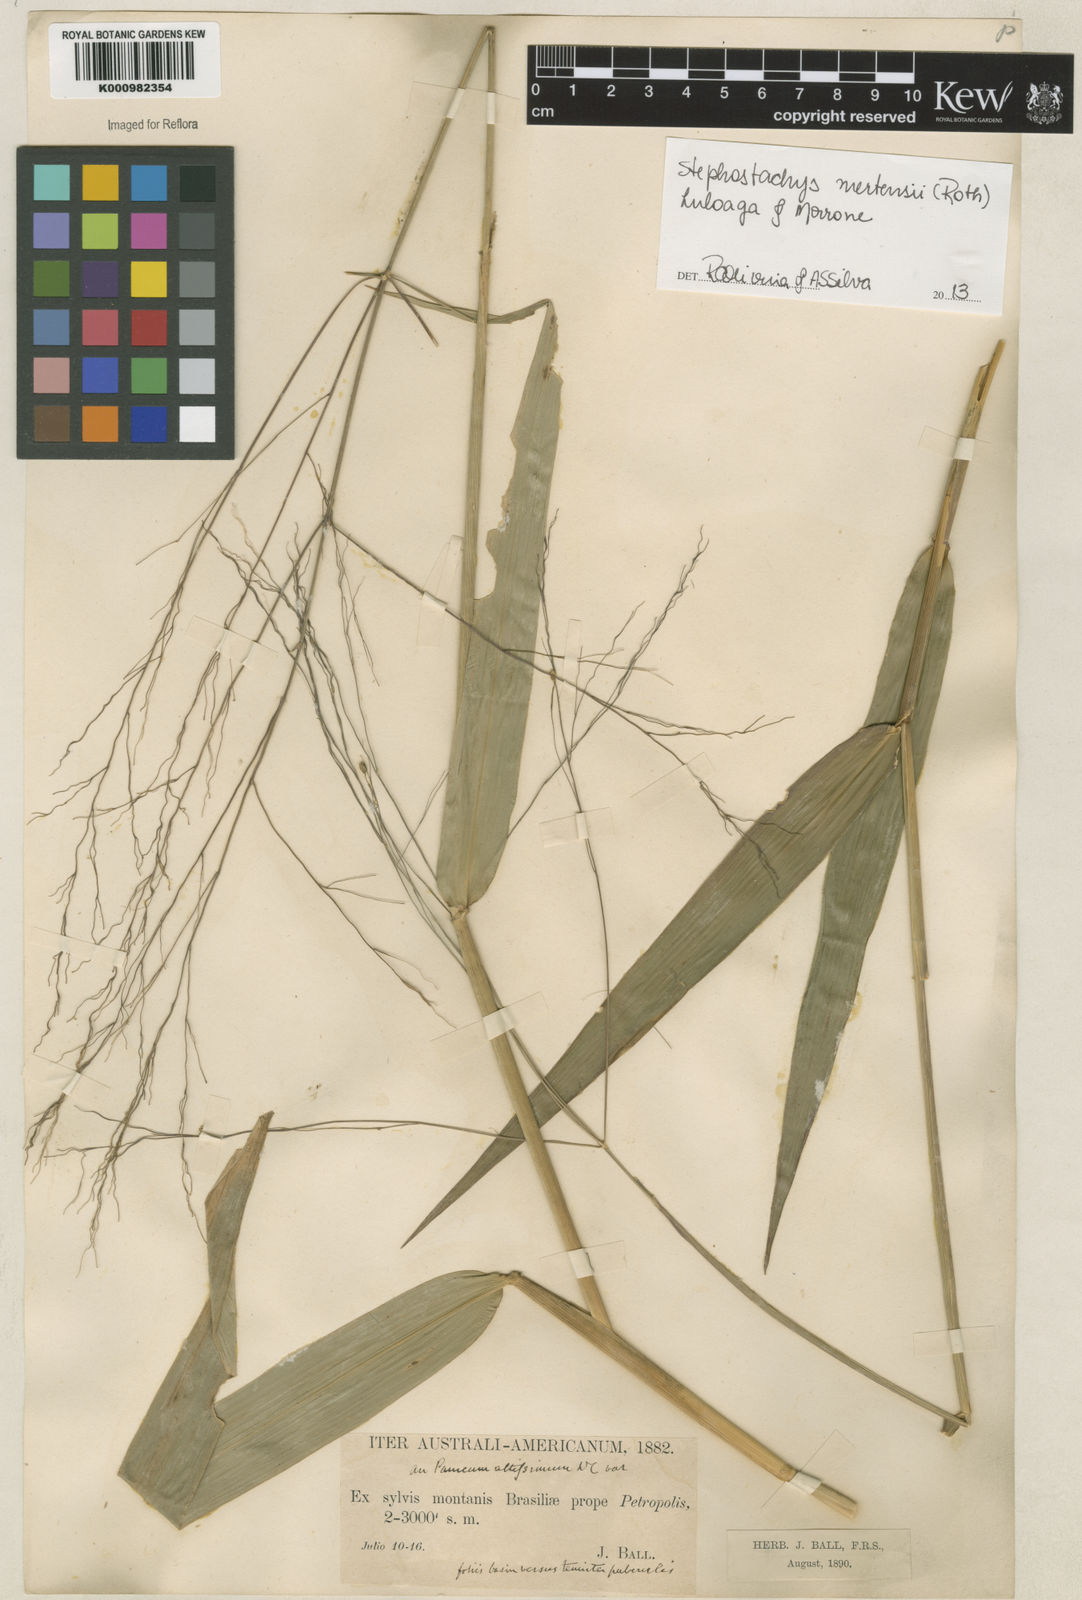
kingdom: Plantae
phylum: Tracheophyta
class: Liliopsida
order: Poales
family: Poaceae
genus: Stephostachys
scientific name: Stephostachys mertensii
